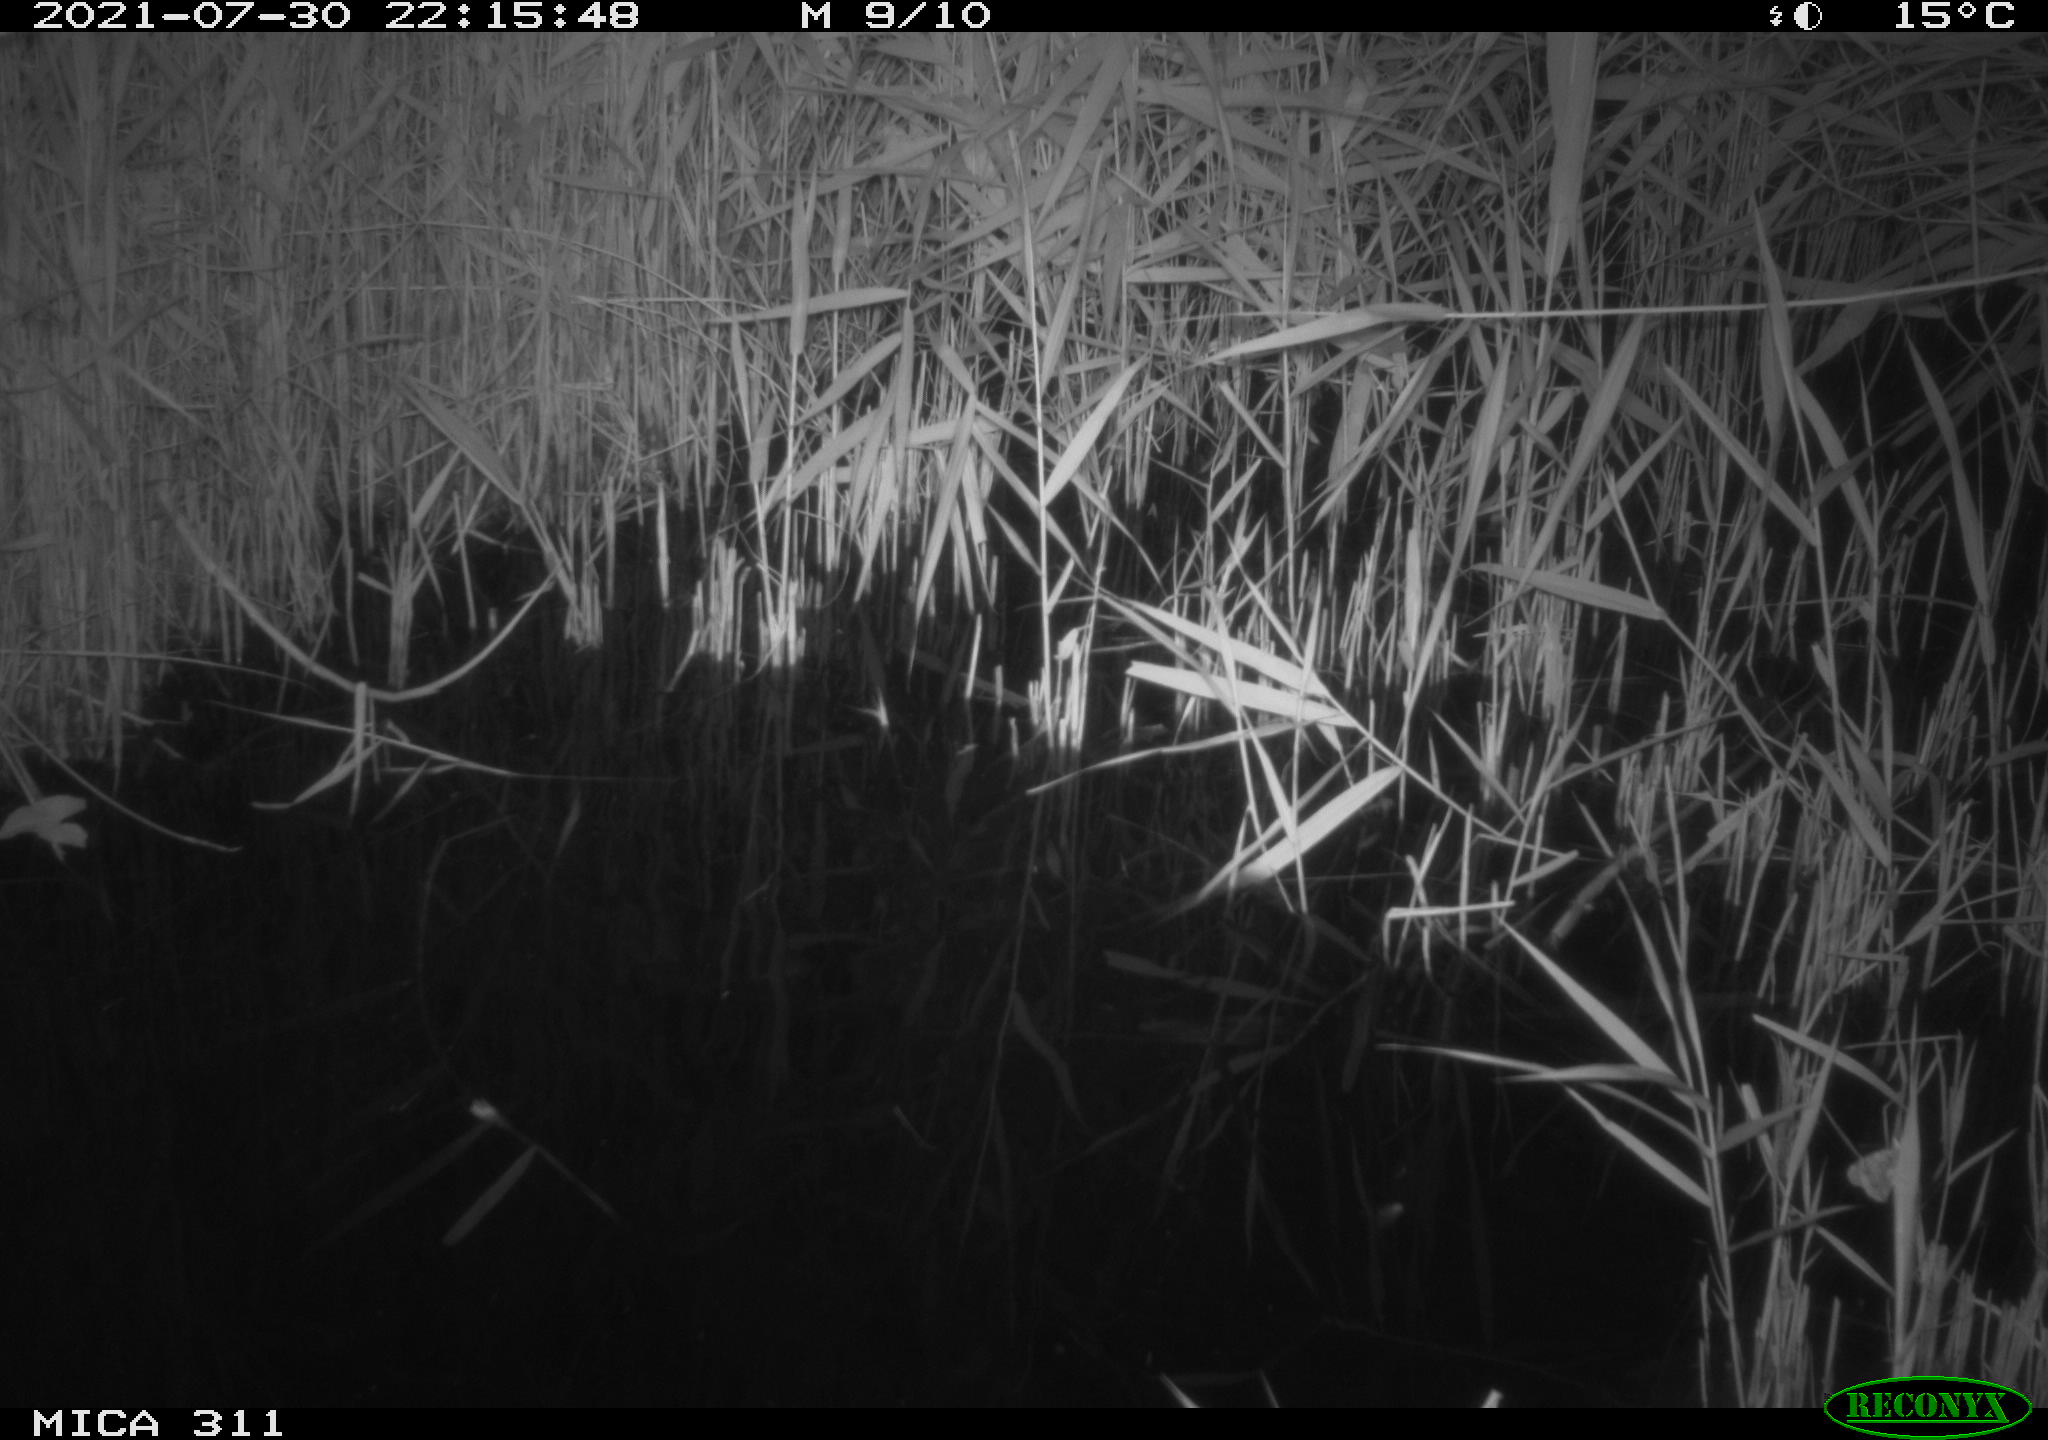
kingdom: Animalia
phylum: Chordata
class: Mammalia
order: Rodentia
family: Muridae
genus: Rattus
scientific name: Rattus norvegicus
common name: Brown rat
